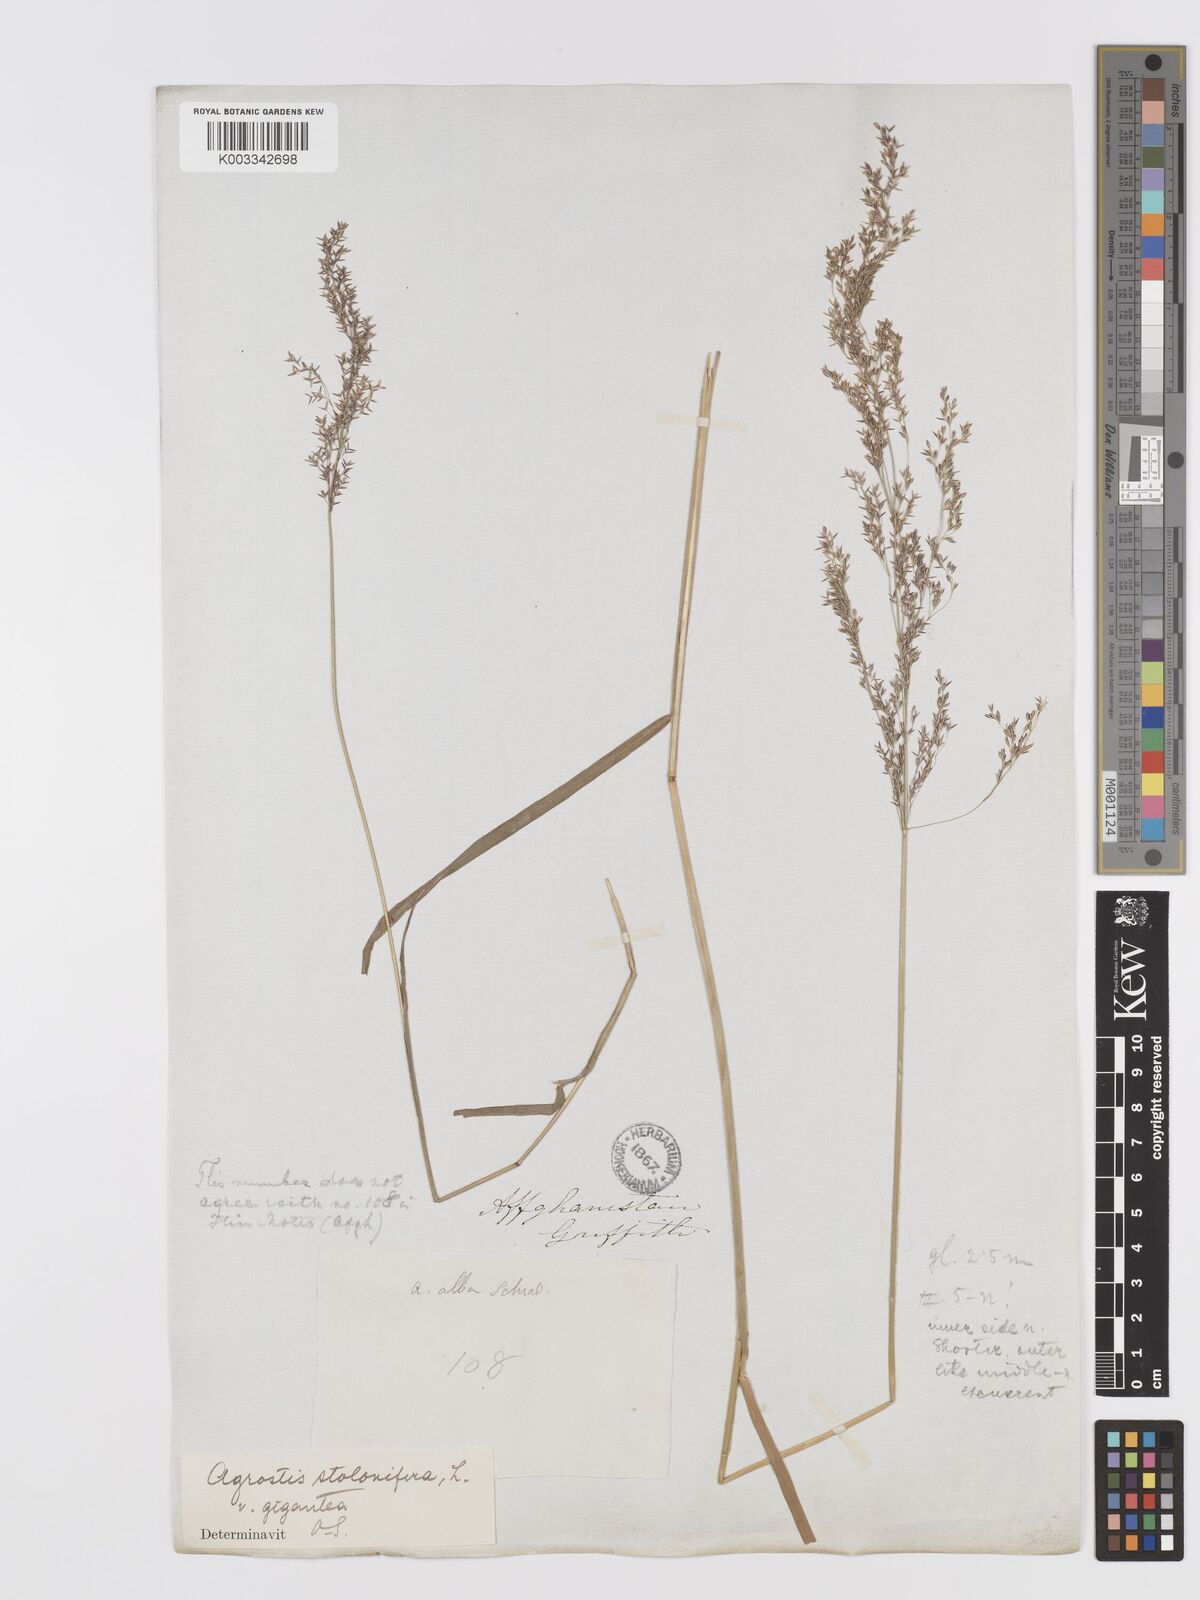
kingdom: Plantae
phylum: Tracheophyta
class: Liliopsida
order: Poales
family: Poaceae
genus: Agrostis
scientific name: Agrostis gigantea
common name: Black bent
